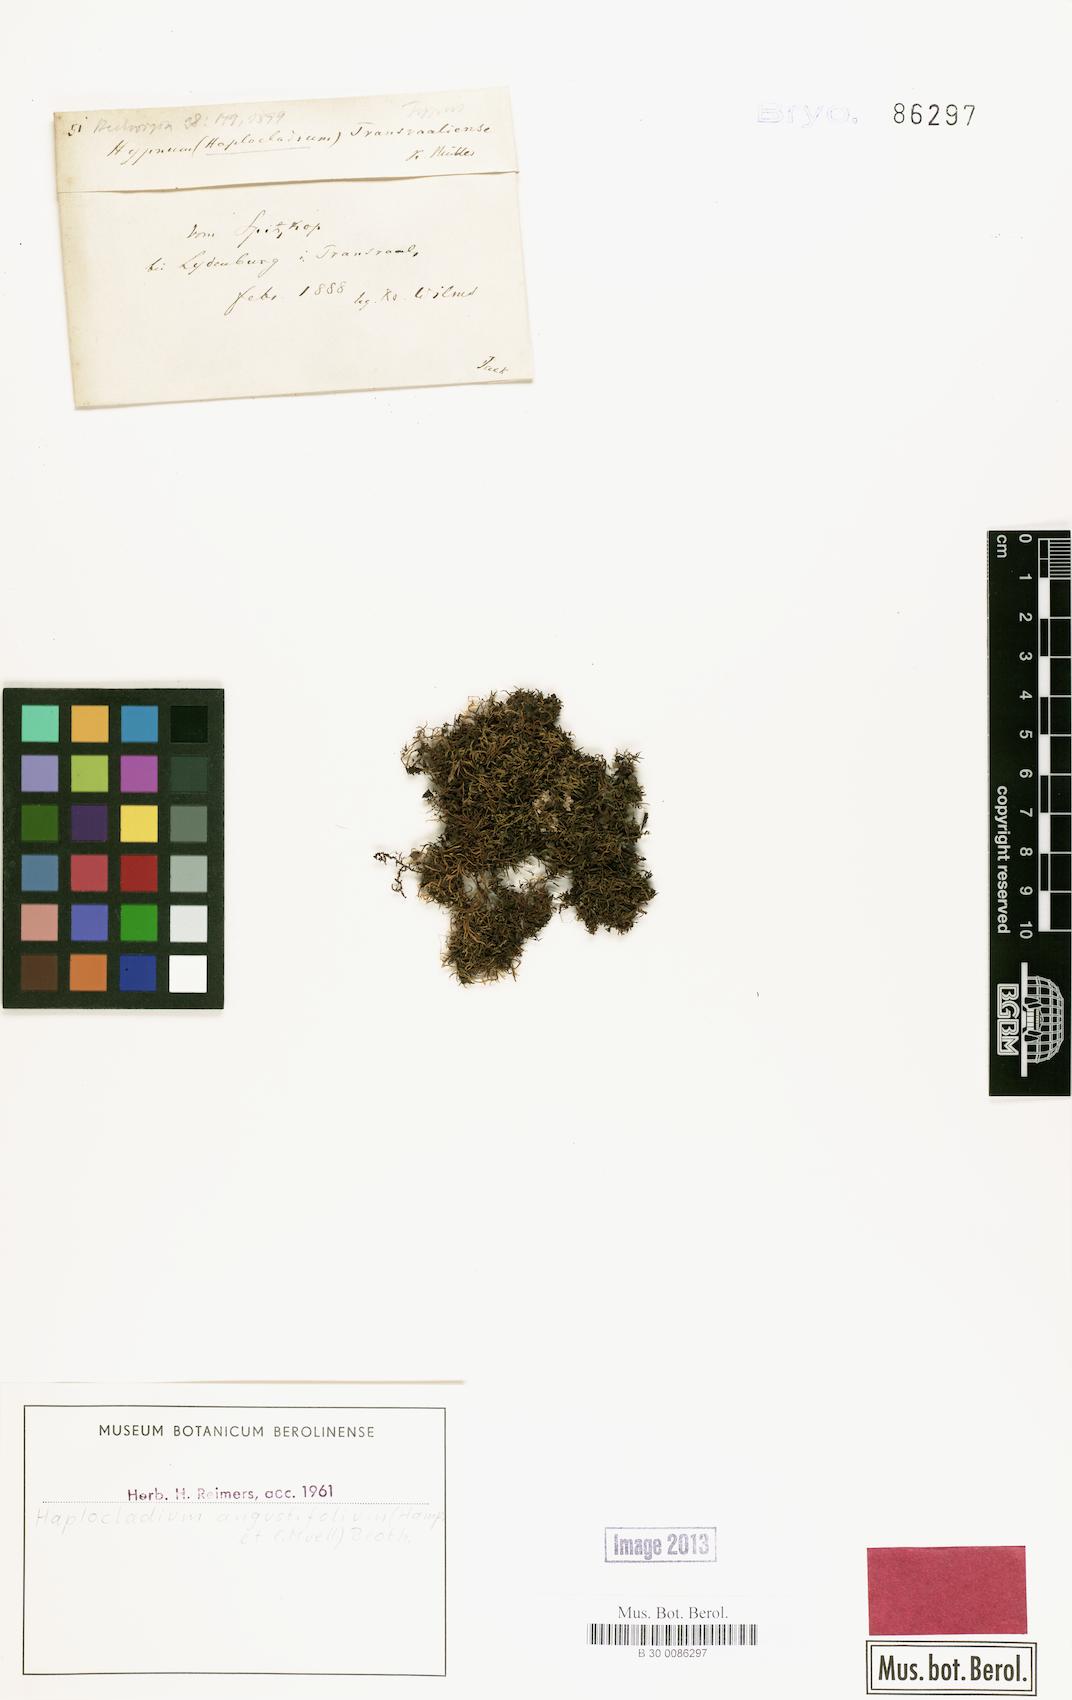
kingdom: Plantae
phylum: Bryophyta
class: Bryopsida
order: Hypnales
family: Leskeaceae
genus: Haplocladium
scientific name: Haplocladium angustifolium
